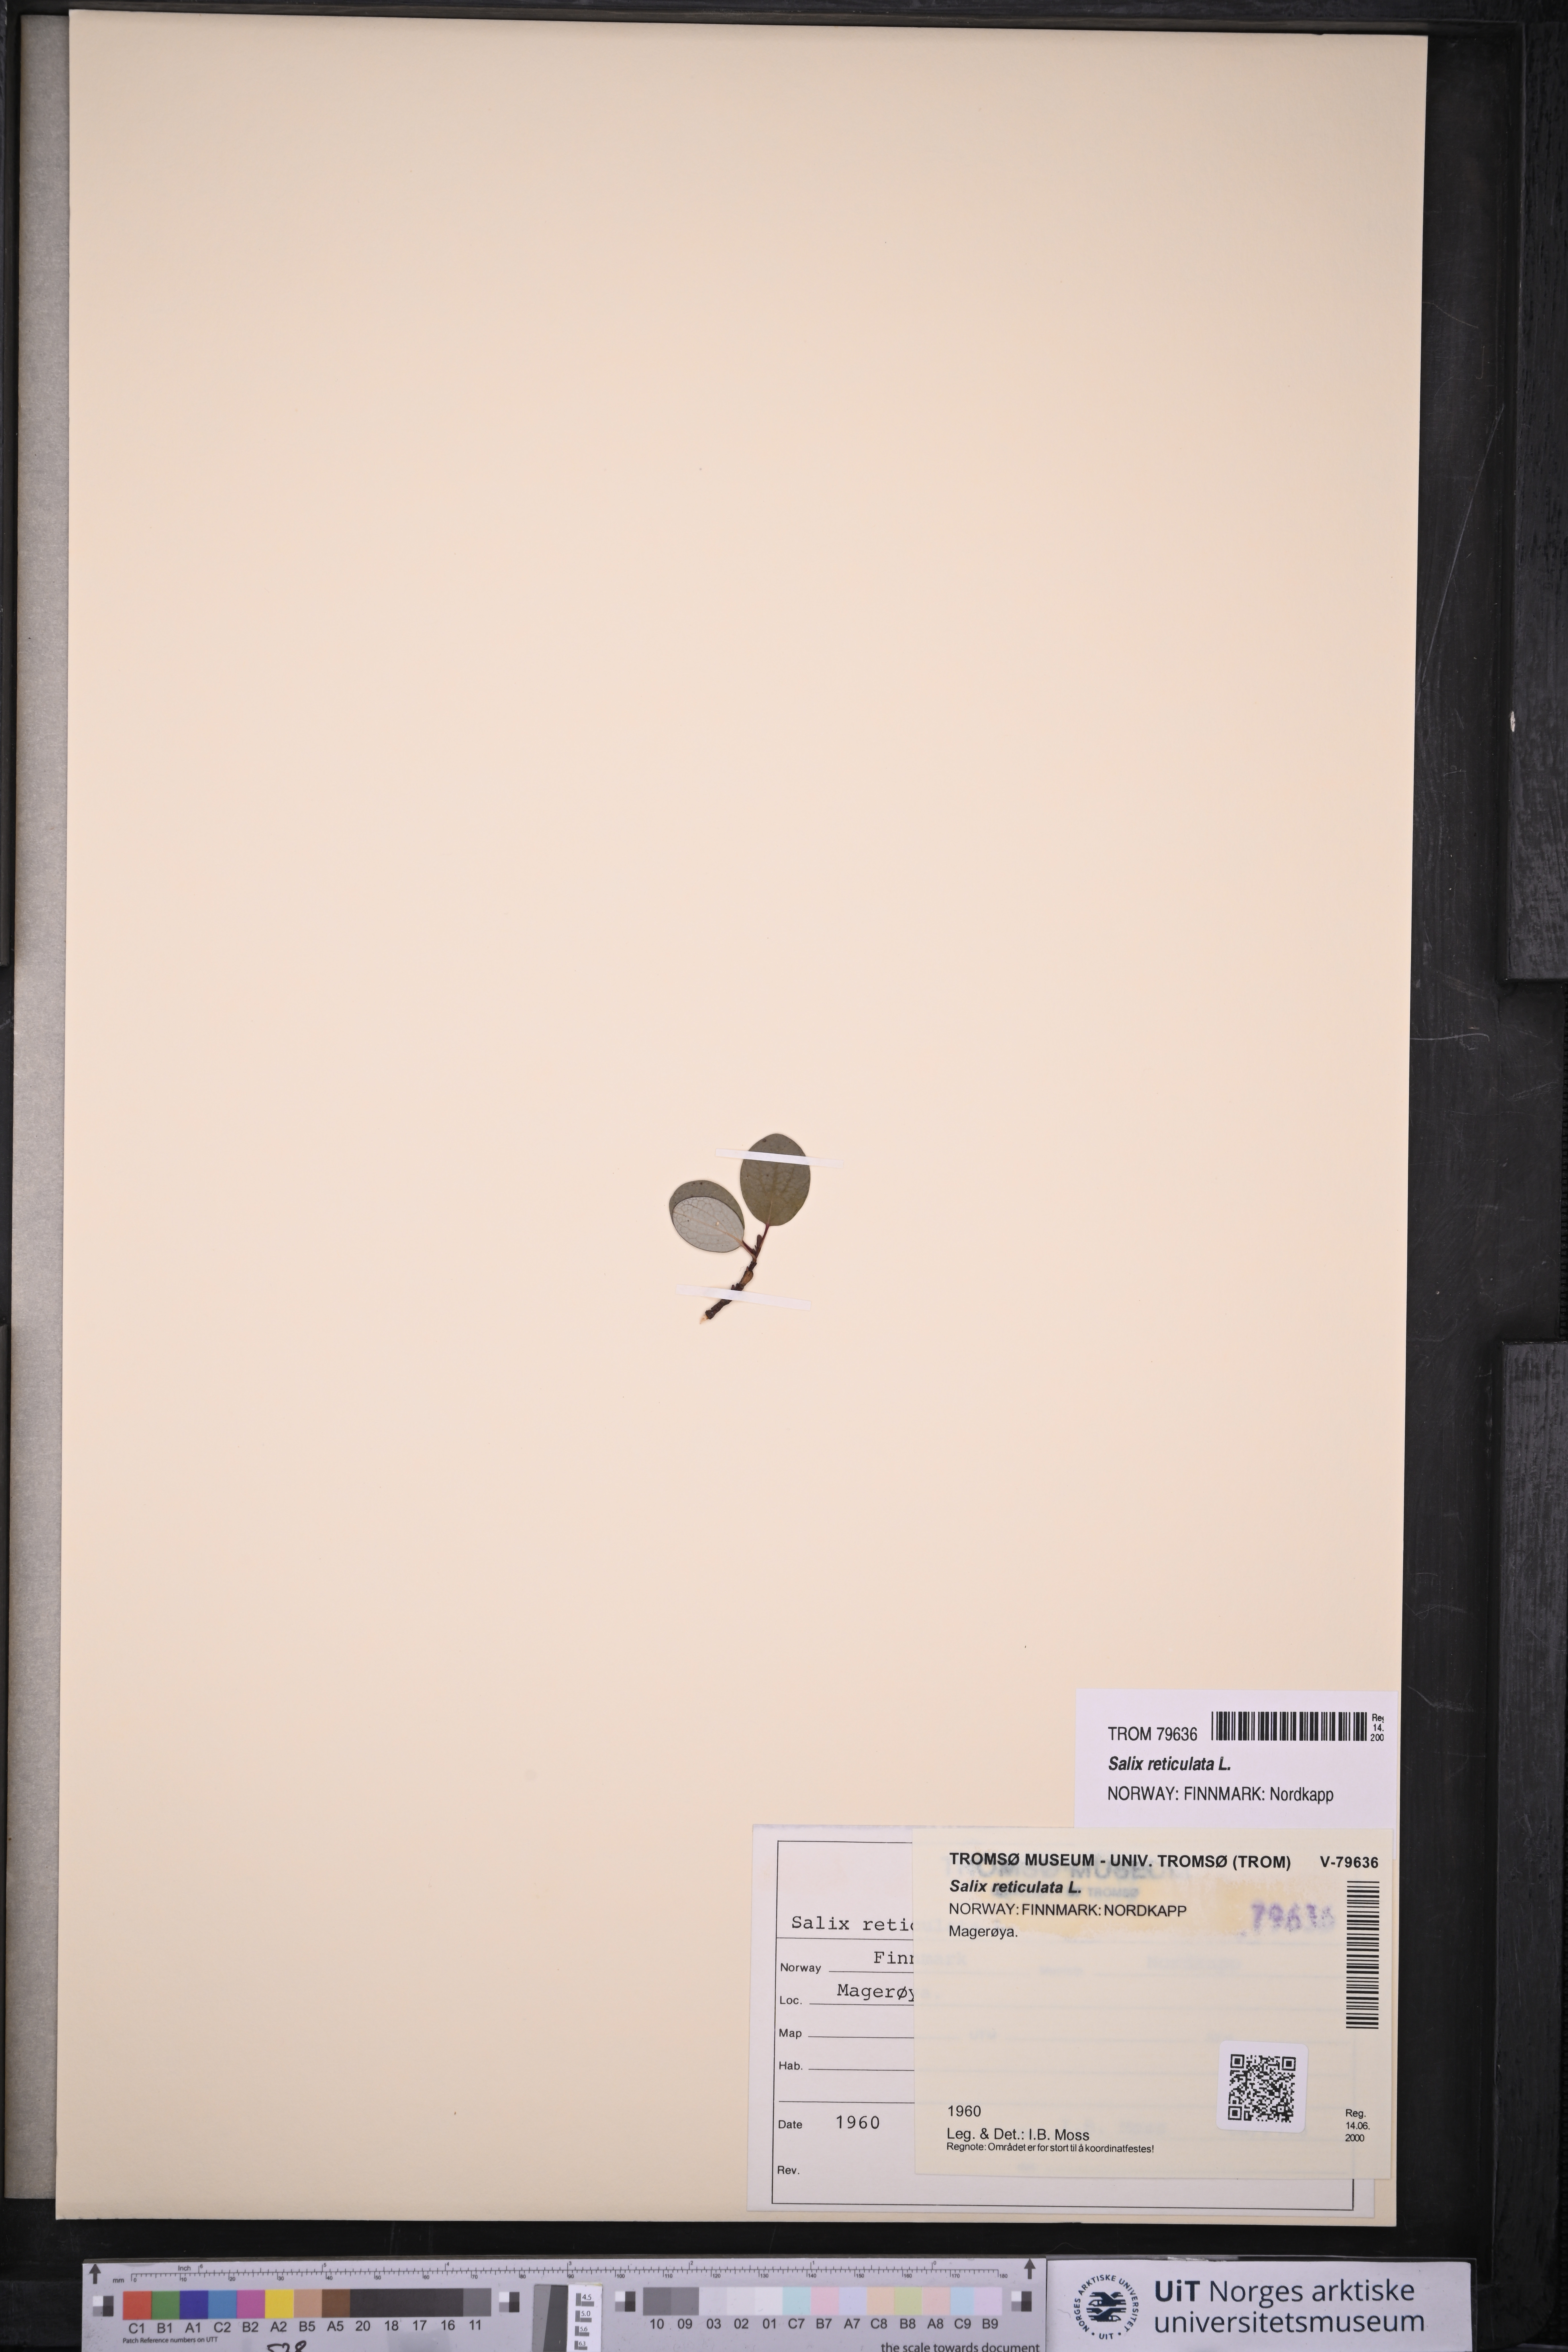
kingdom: Plantae
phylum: Tracheophyta
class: Magnoliopsida
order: Malpighiales
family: Salicaceae
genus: Salix
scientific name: Salix reticulata
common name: Net-leaved willow
